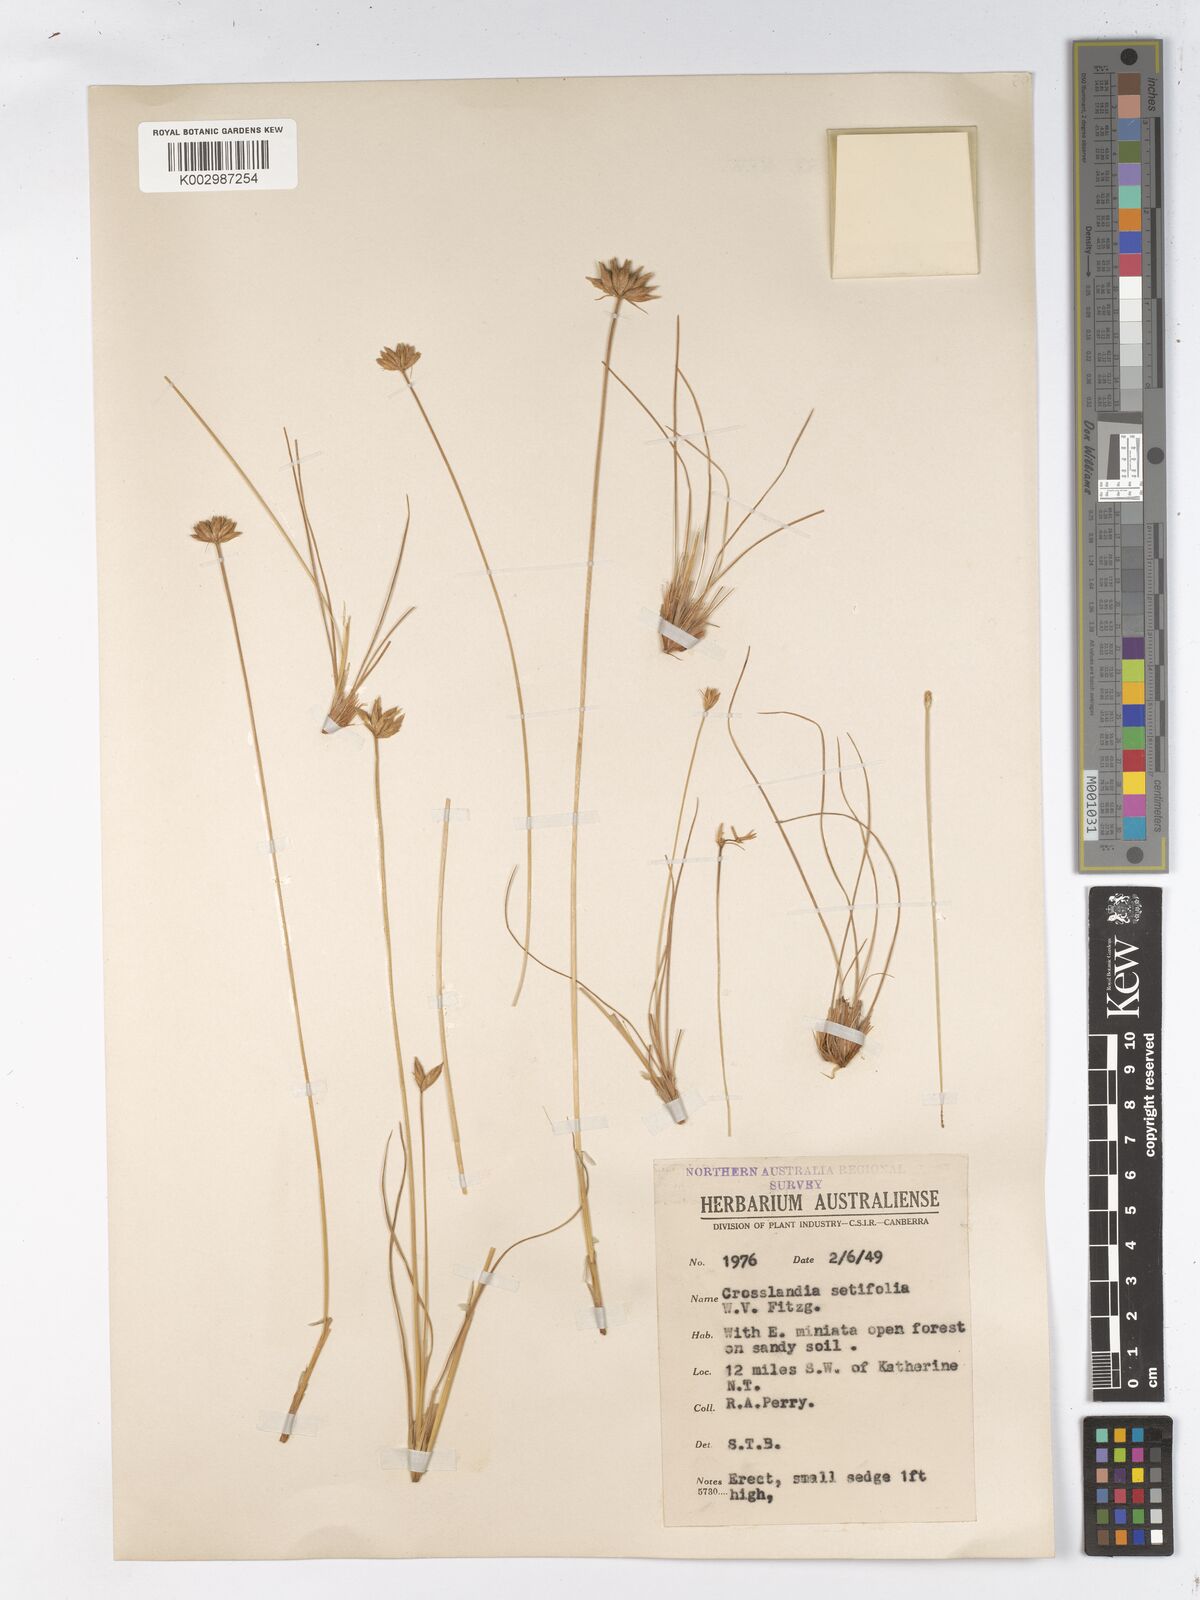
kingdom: Plantae
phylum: Tracheophyta
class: Liliopsida
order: Poales
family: Cyperaceae
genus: Fimbristylis
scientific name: Fimbristylis crosslandii
